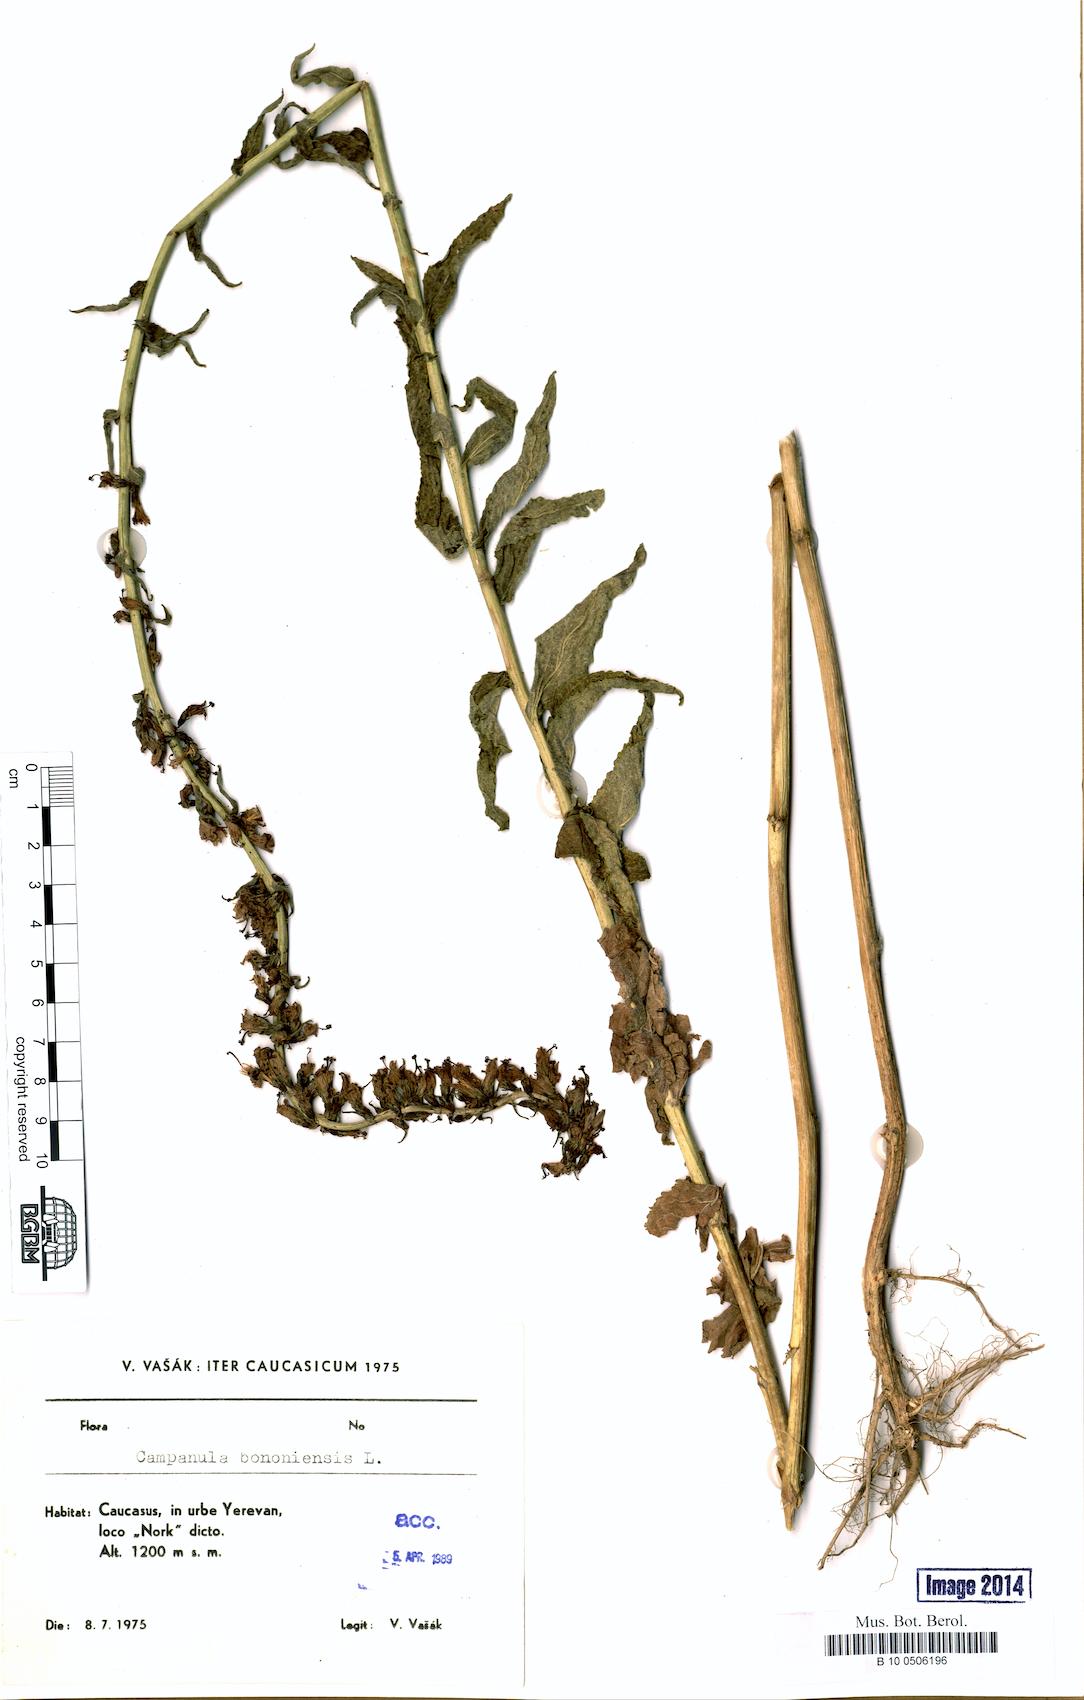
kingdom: Plantae
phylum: Tracheophyta
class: Magnoliopsida
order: Asterales
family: Campanulaceae
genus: Campanula
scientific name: Campanula bononiensis
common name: Pale bellflower
